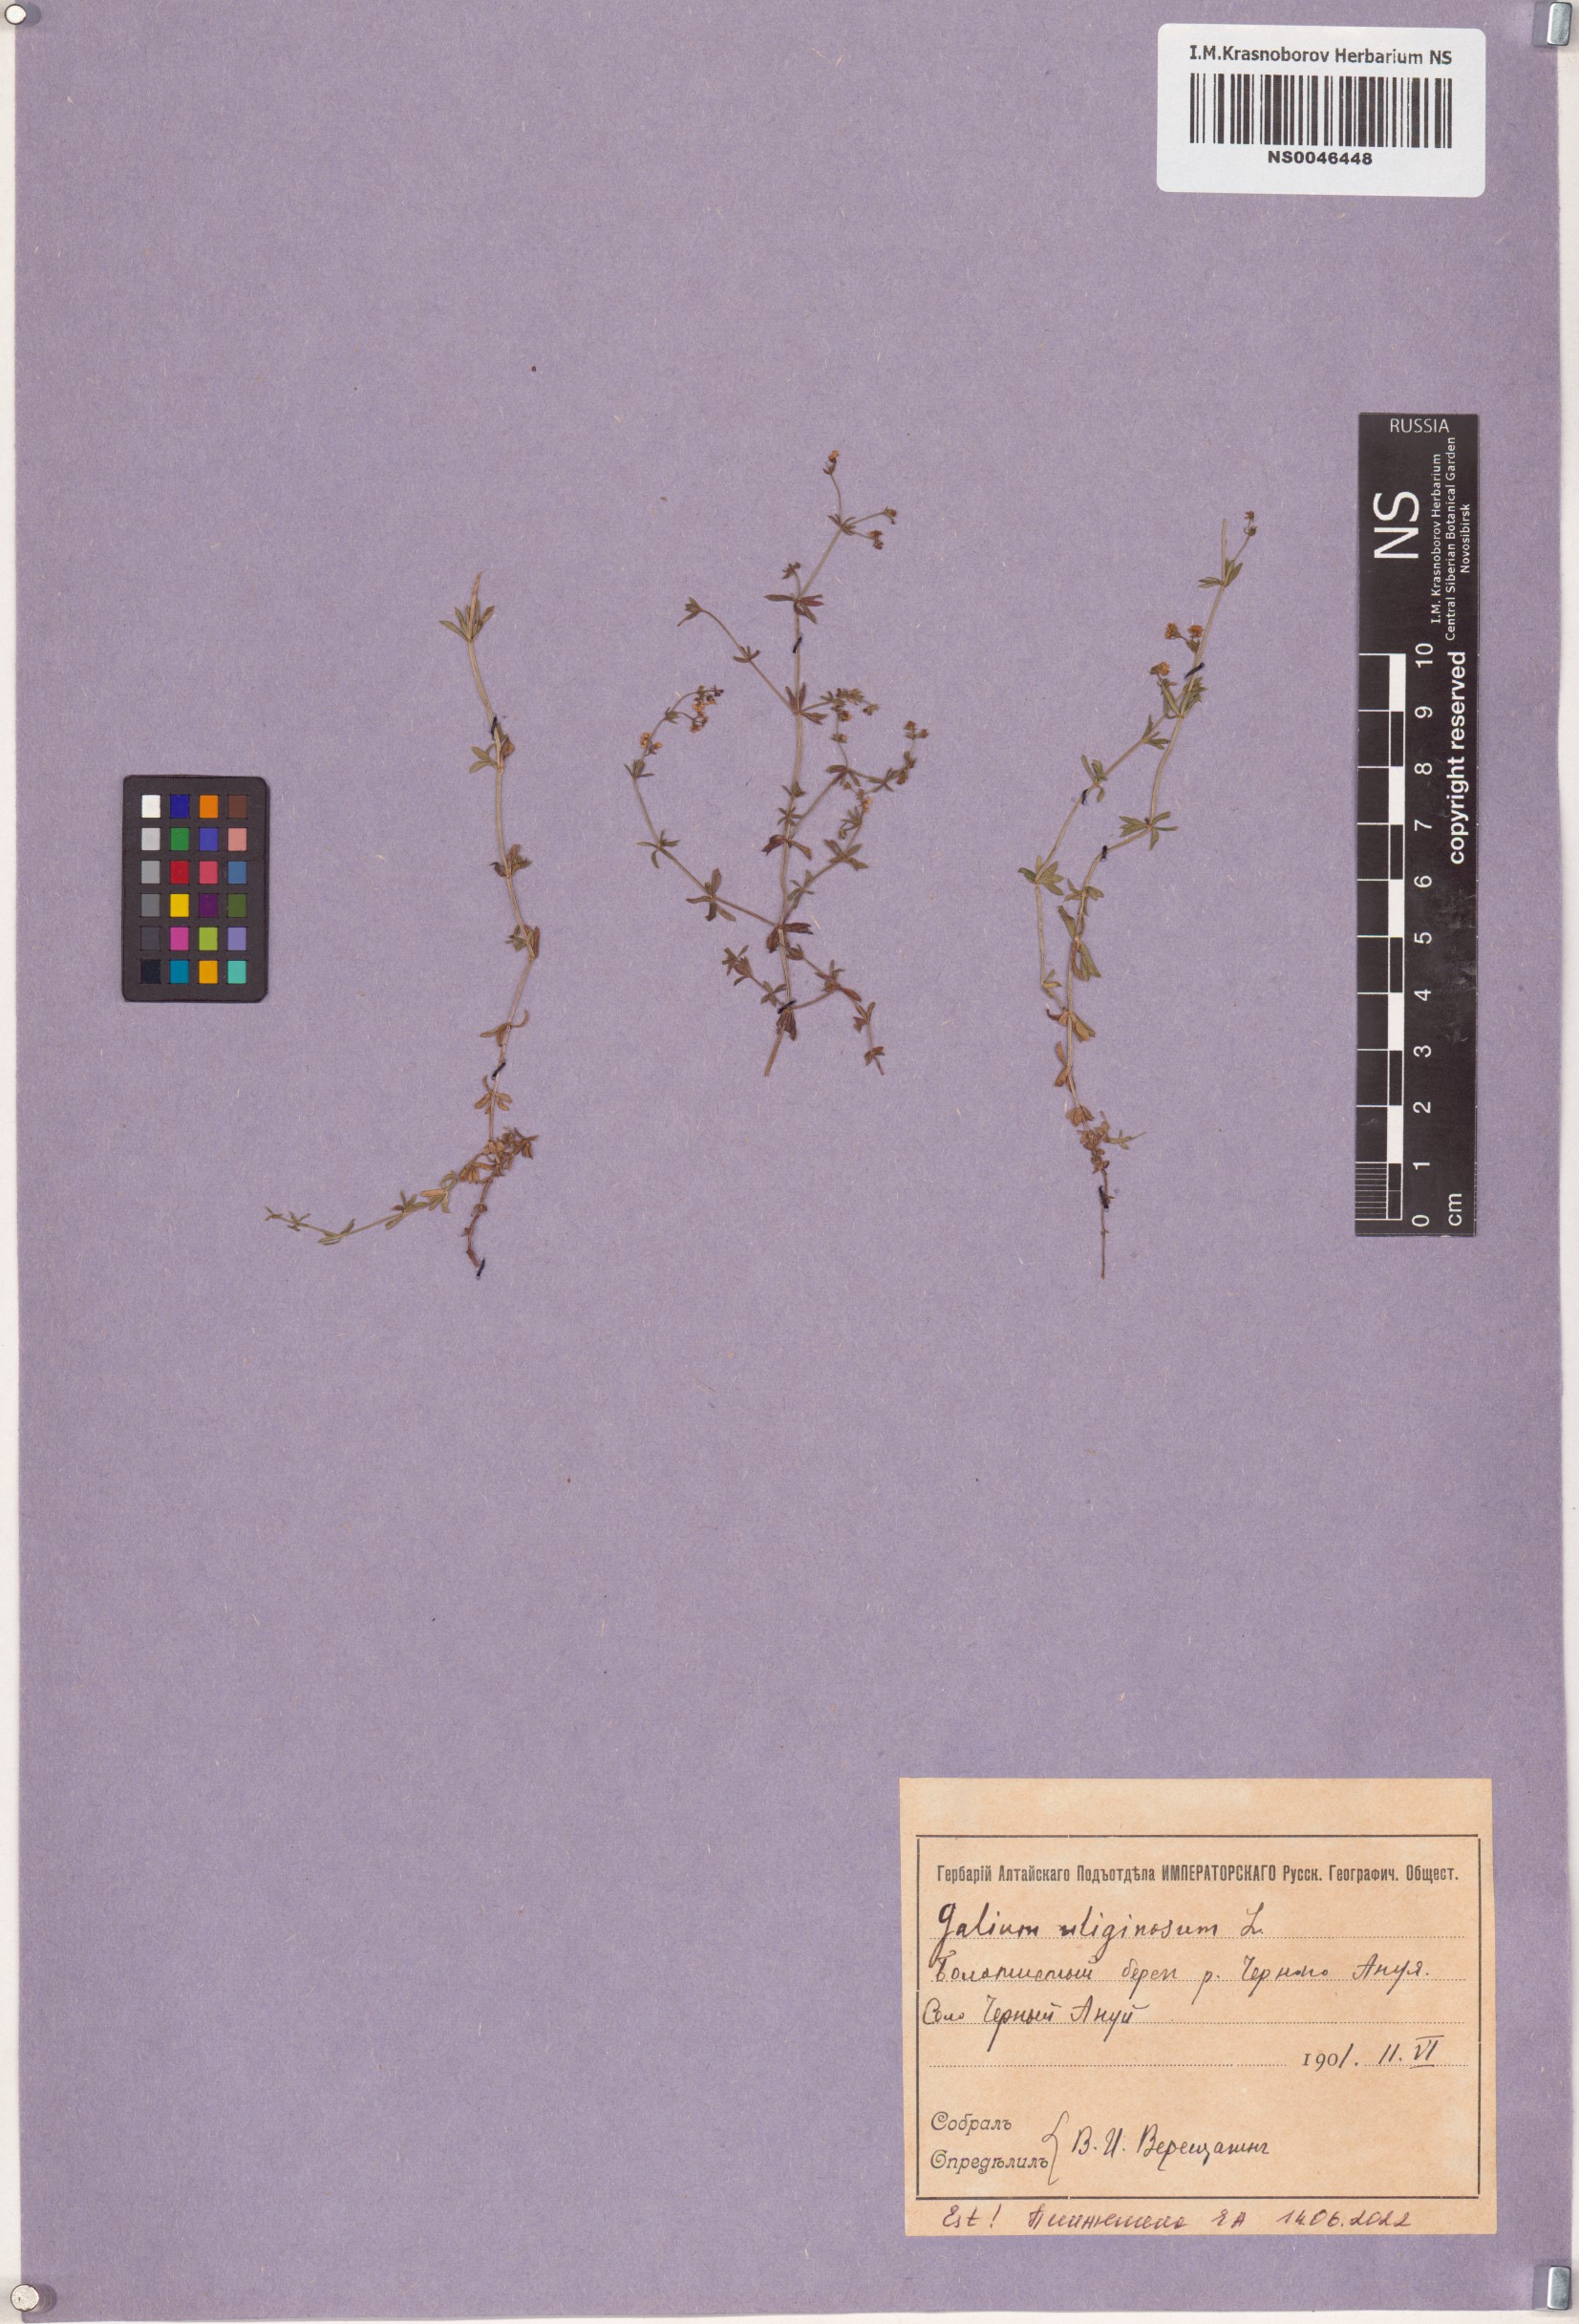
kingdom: Plantae
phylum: Tracheophyta
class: Magnoliopsida
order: Gentianales
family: Rubiaceae
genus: Galium
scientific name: Galium uliginosum
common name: Fen bedstraw
